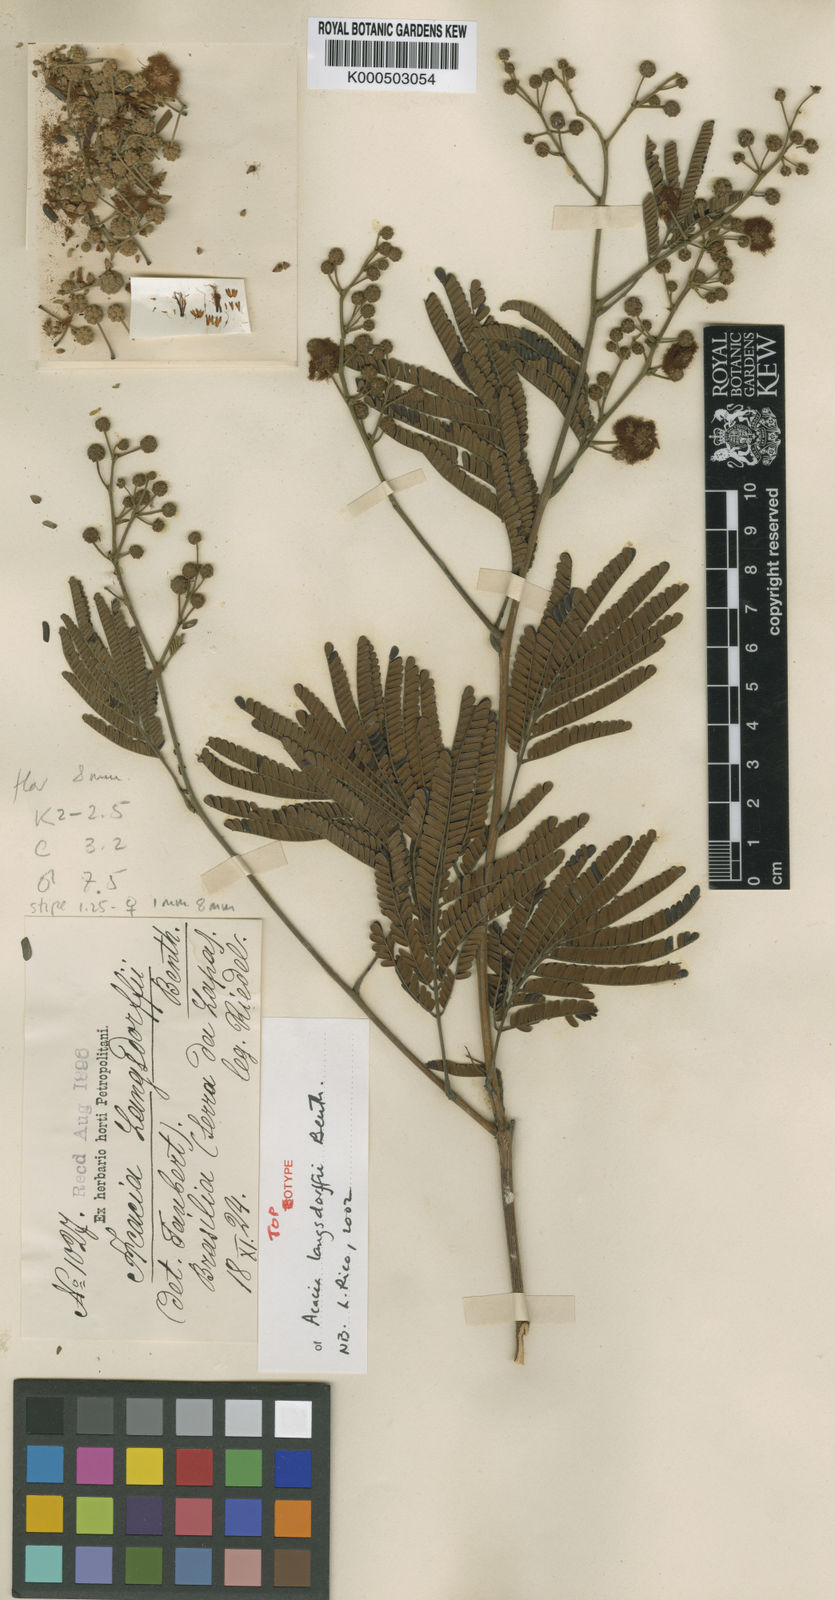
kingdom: Plantae
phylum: Tracheophyta
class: Magnoliopsida
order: Fabales
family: Fabaceae
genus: Acacia
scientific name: Acacia
